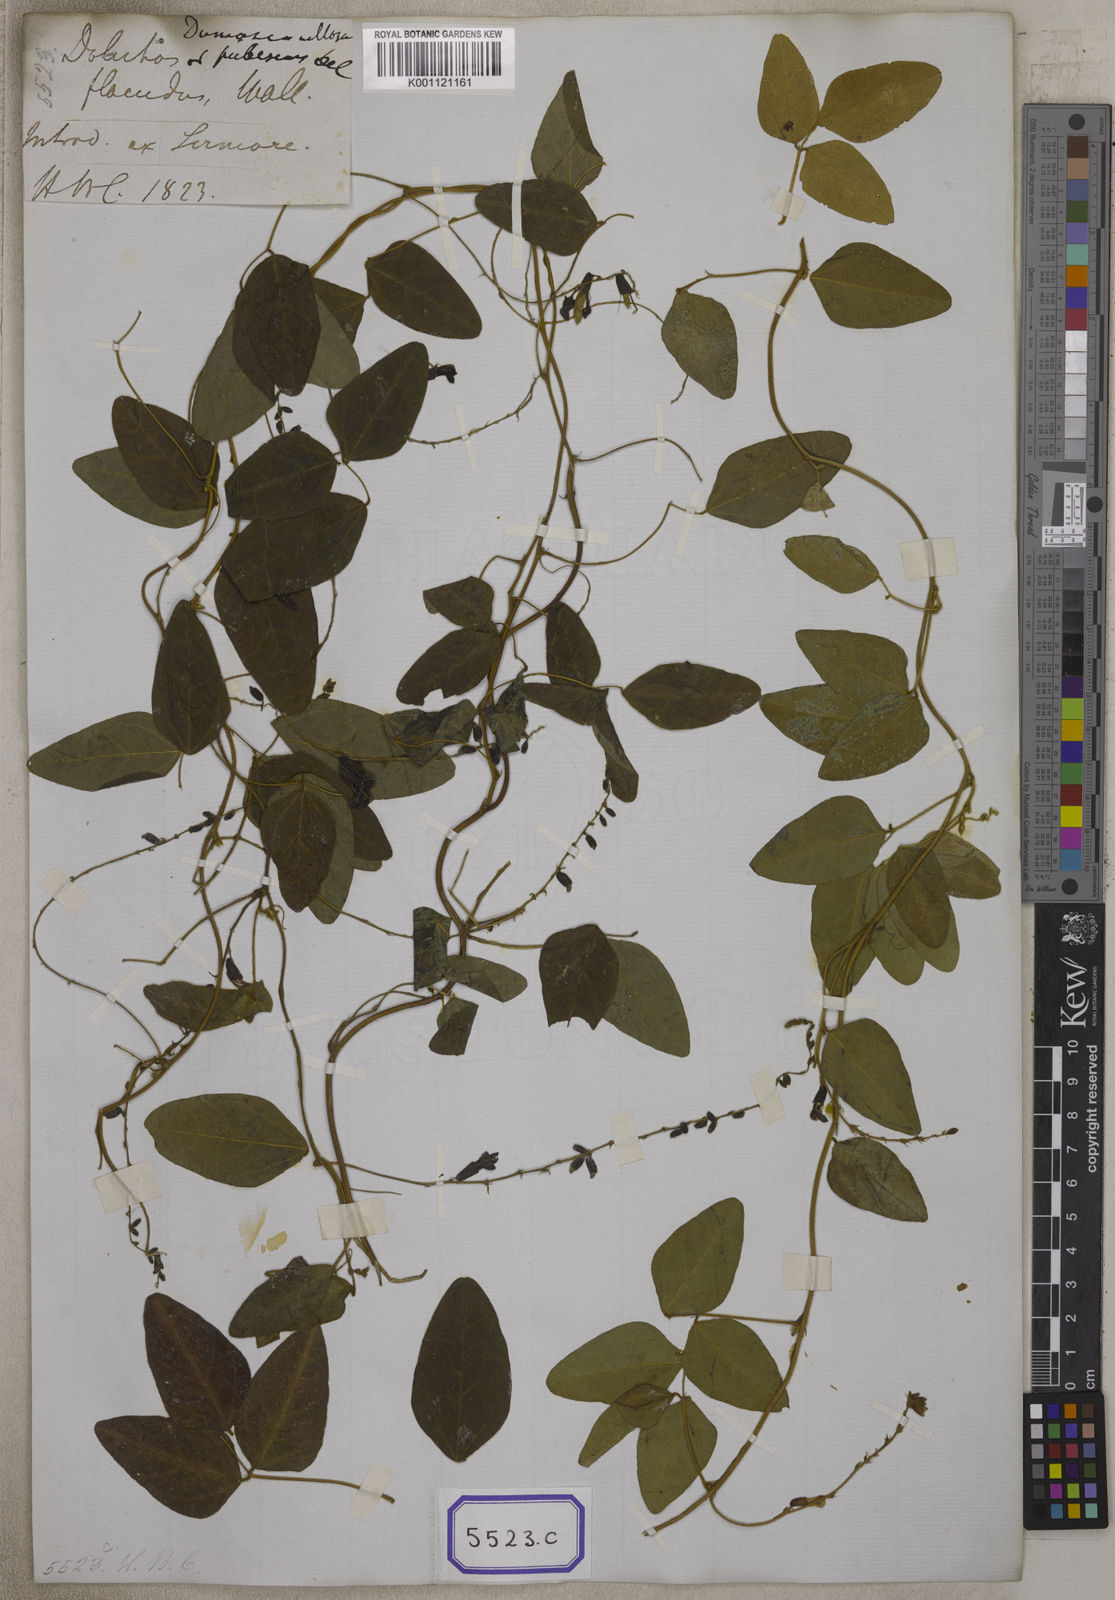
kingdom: Plantae
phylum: Tracheophyta
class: Magnoliopsida
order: Fabales
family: Fabaceae
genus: Dumasia
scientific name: Dumasia villosa
